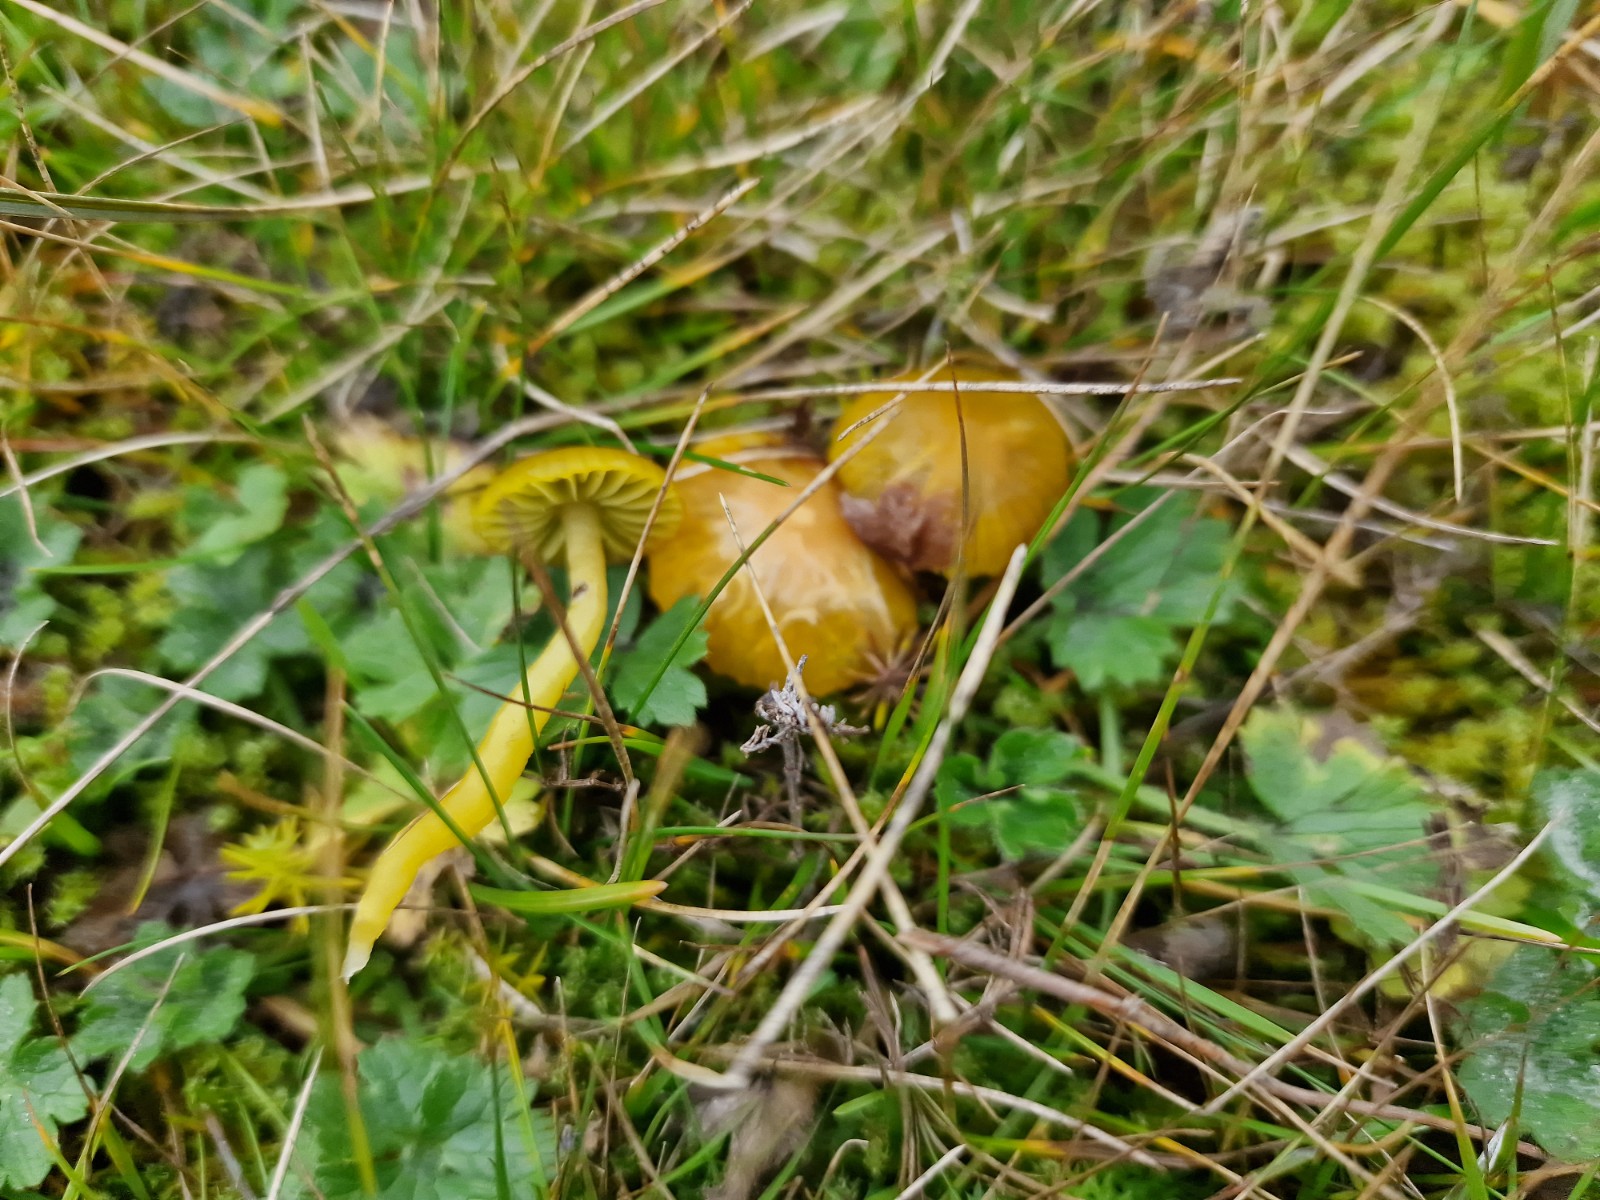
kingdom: Fungi
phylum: Basidiomycota
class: Agaricomycetes
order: Agaricales
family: Hygrophoraceae
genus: Gliophorus
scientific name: Gliophorus psittacinus
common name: papegøje-vokshat
